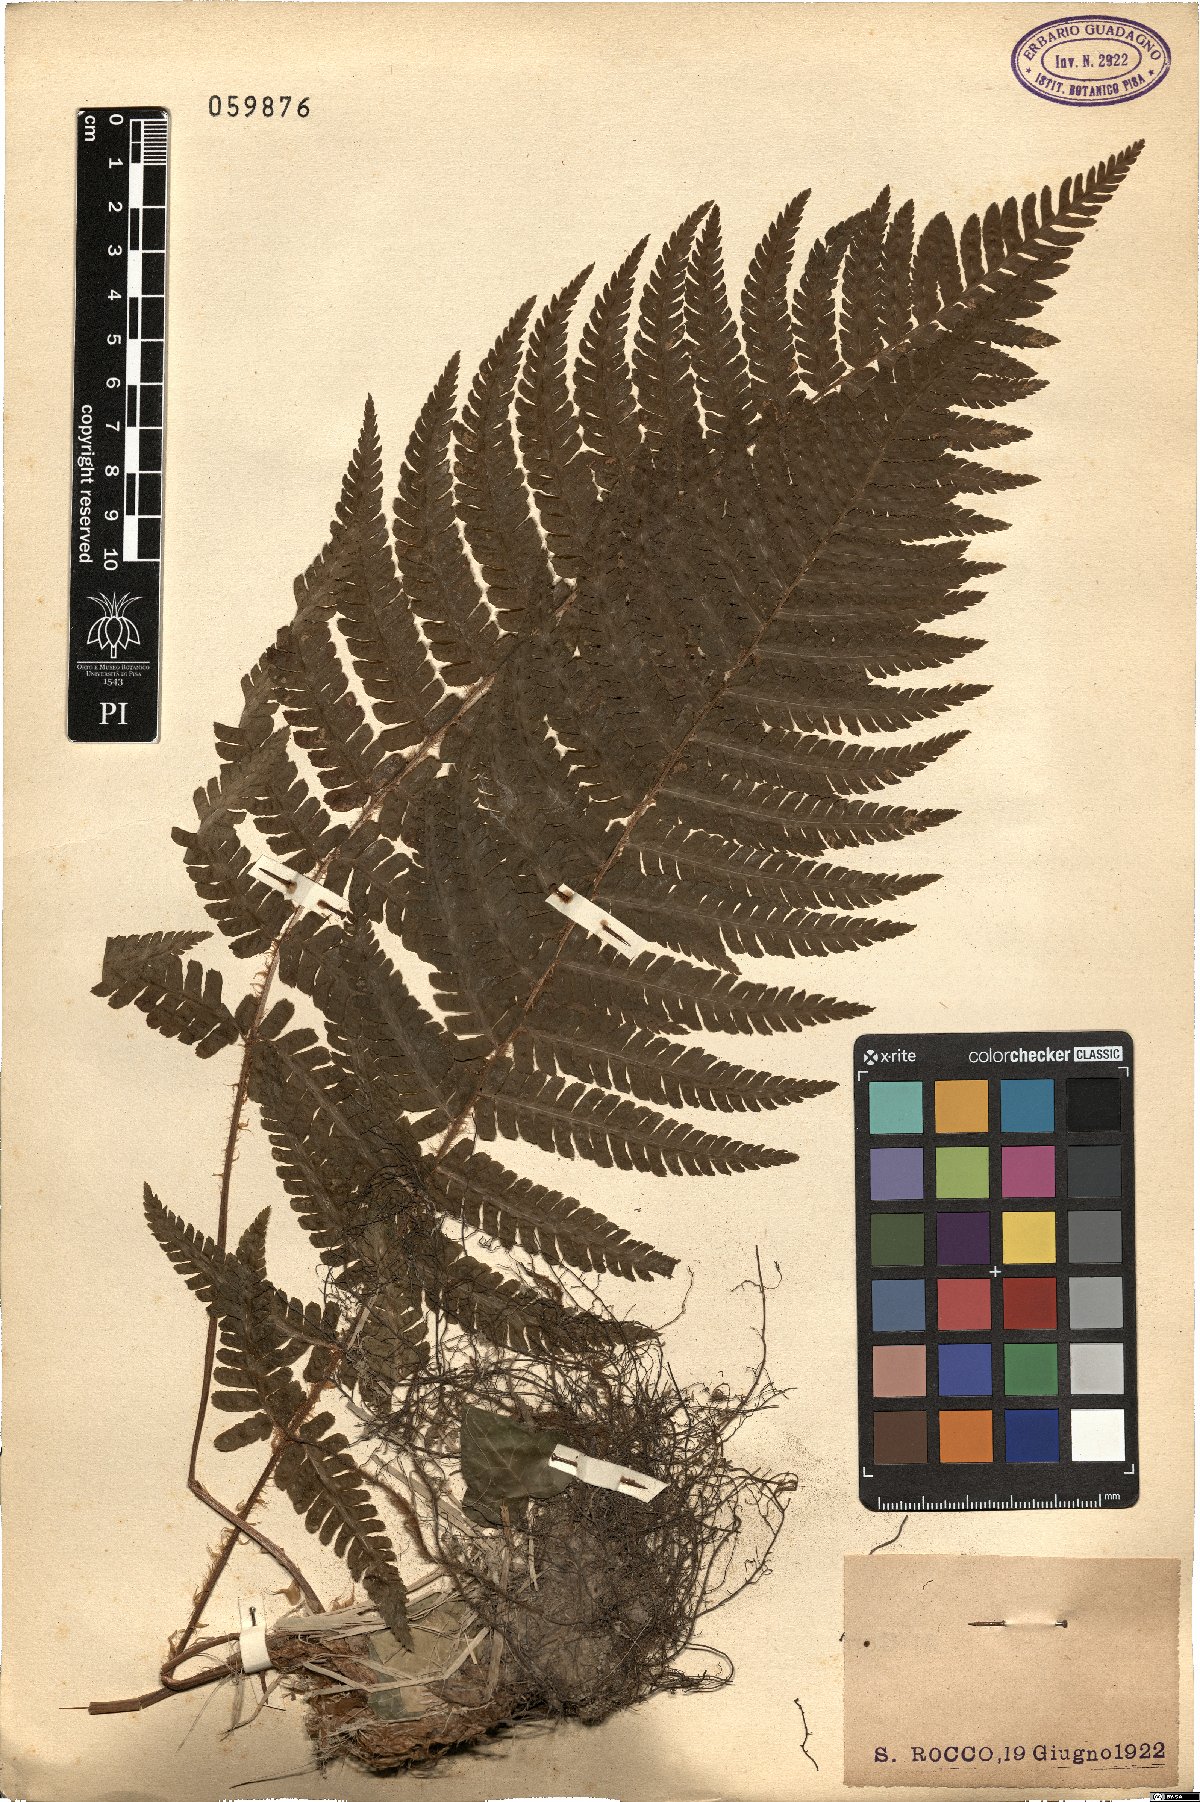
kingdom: Plantae
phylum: Tracheophyta
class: Polypodiopsida
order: Polypodiales
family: Dryopteridaceae
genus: Dryopteris
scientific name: Dryopteris
